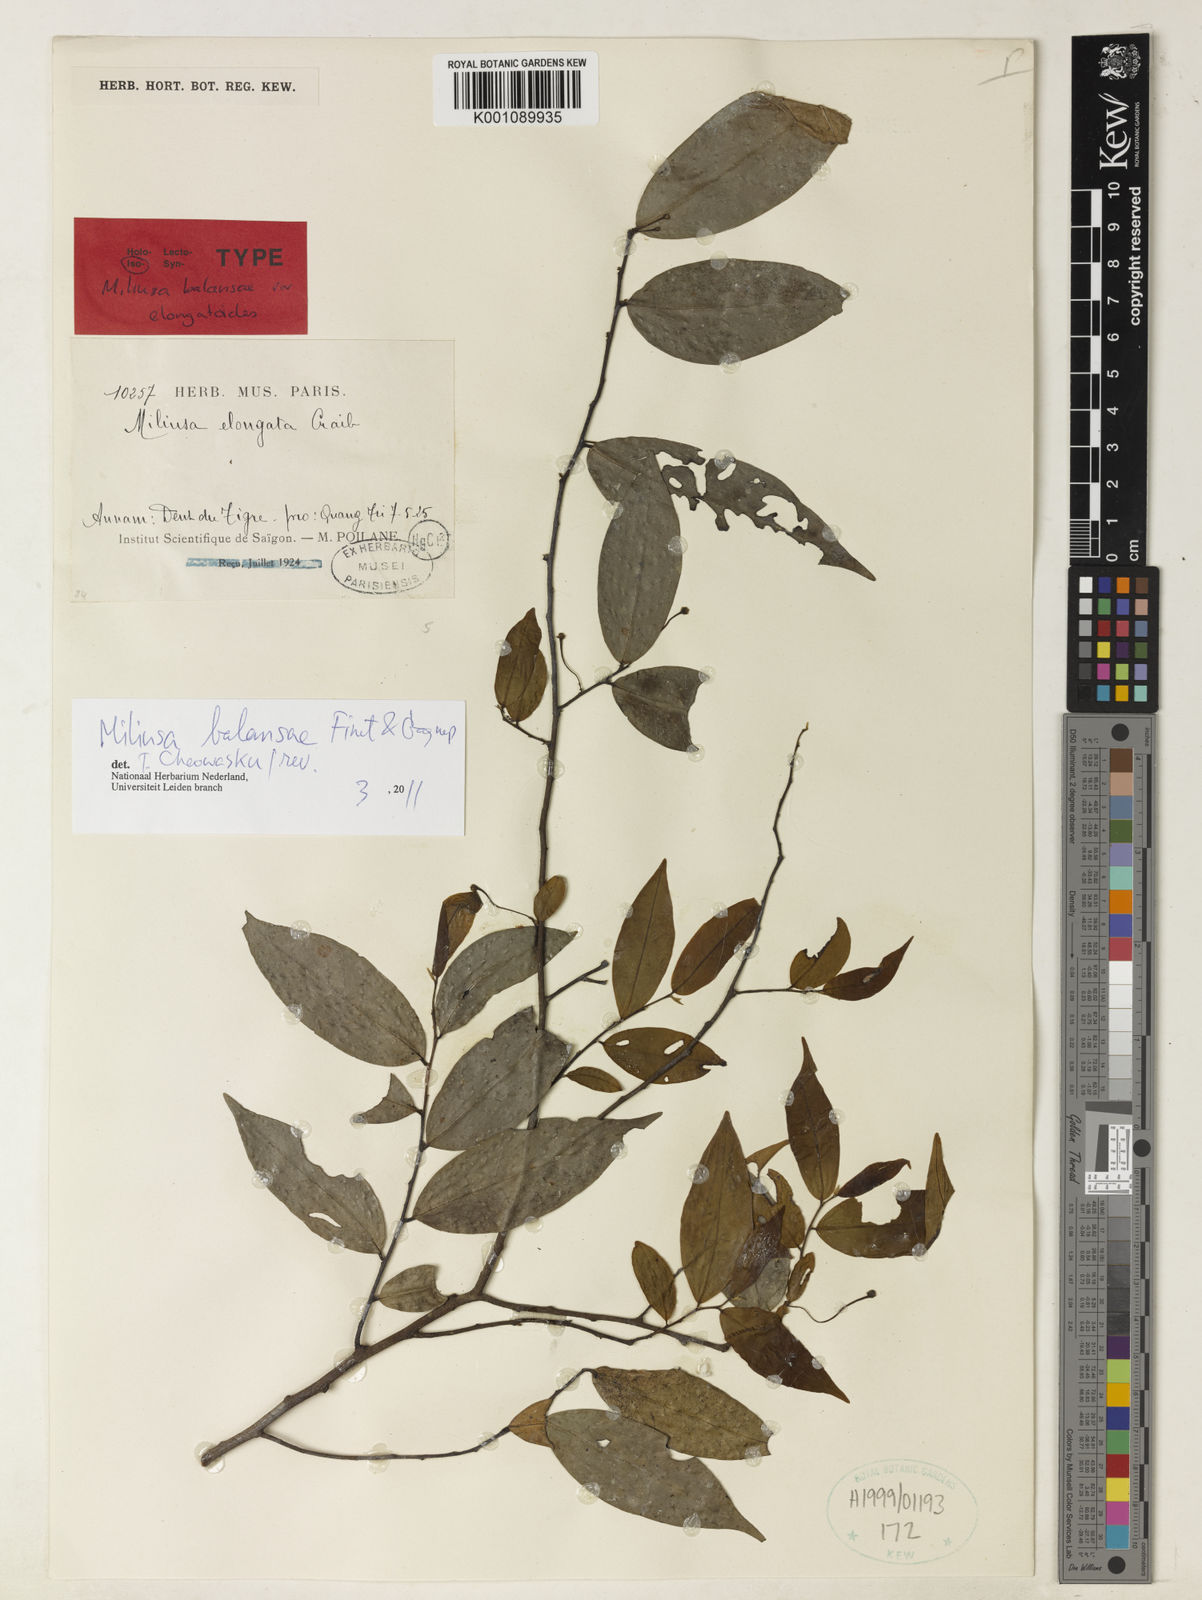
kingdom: Plantae
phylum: Tracheophyta
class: Magnoliopsida
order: Magnoliales
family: Annonaceae
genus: Miliusa
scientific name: Miliusa balansae
